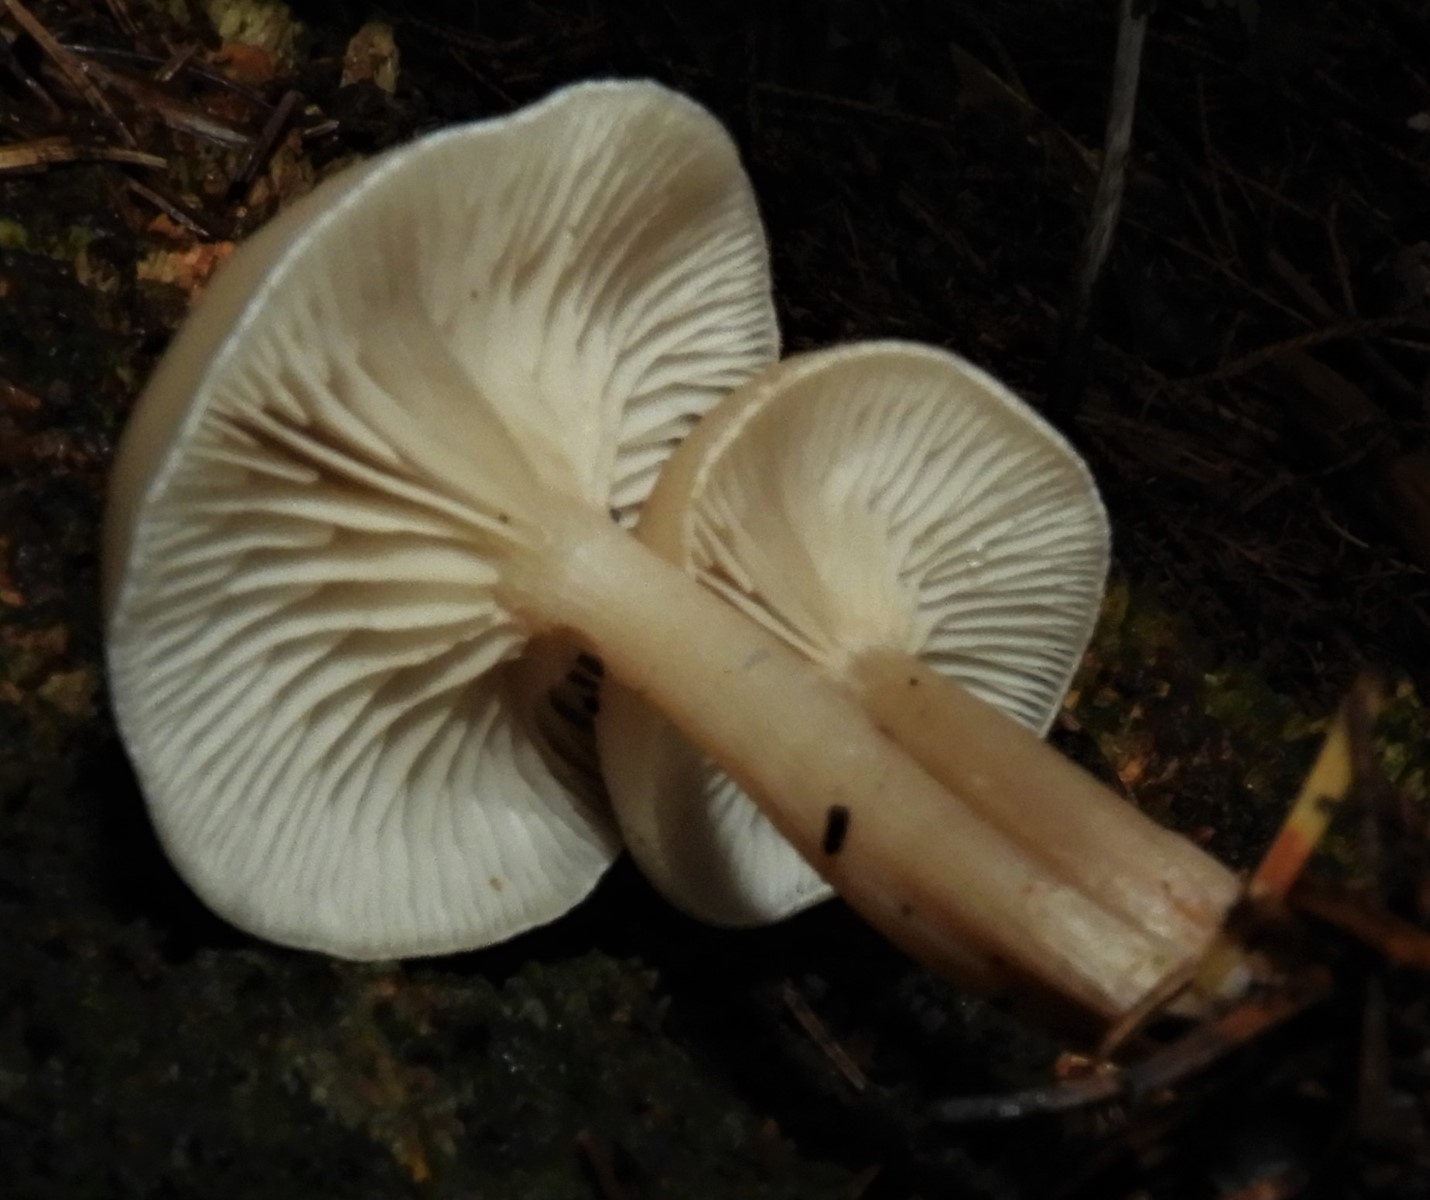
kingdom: Fungi
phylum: Basidiomycota
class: Agaricomycetes
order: Agaricales
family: Tricholomataceae
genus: Clitocybe
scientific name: Clitocybe fragrans
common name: vellugtende tragthat
